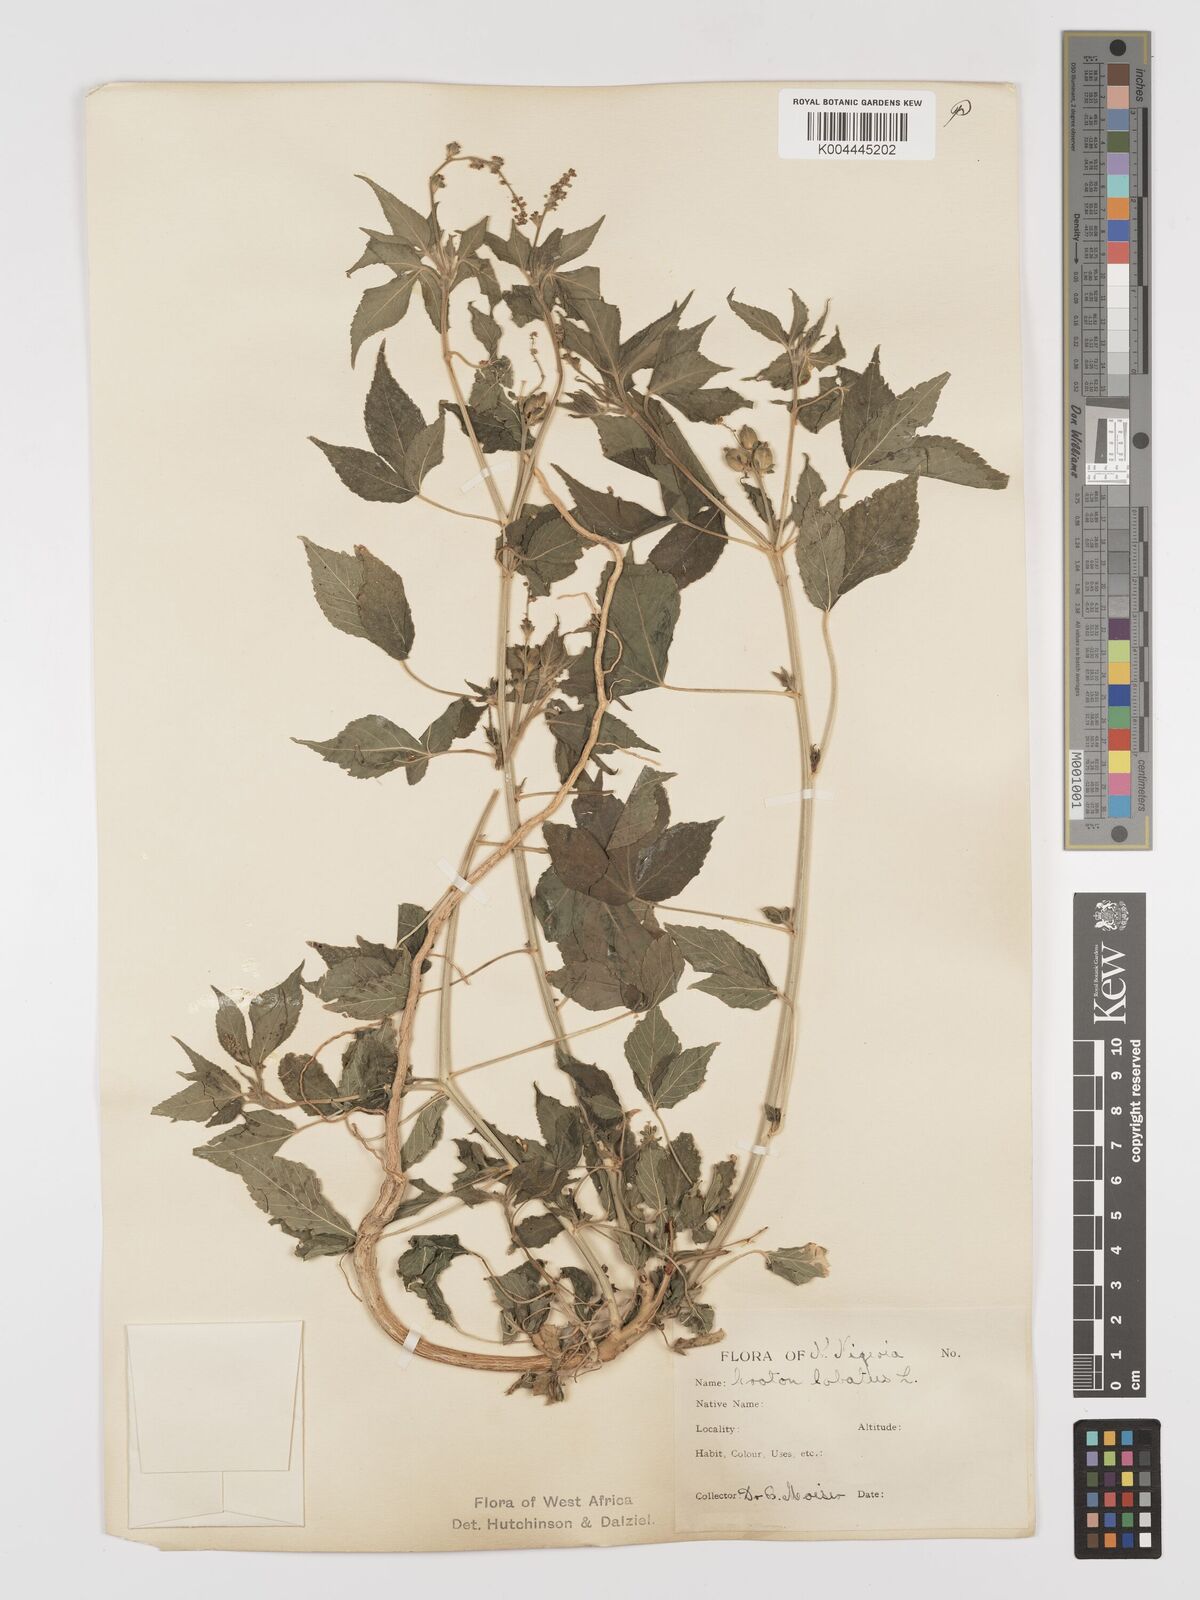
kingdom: Plantae
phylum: Tracheophyta
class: Magnoliopsida
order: Malpighiales
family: Euphorbiaceae
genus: Astraea
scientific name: Astraea lobata
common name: Lobed croton
